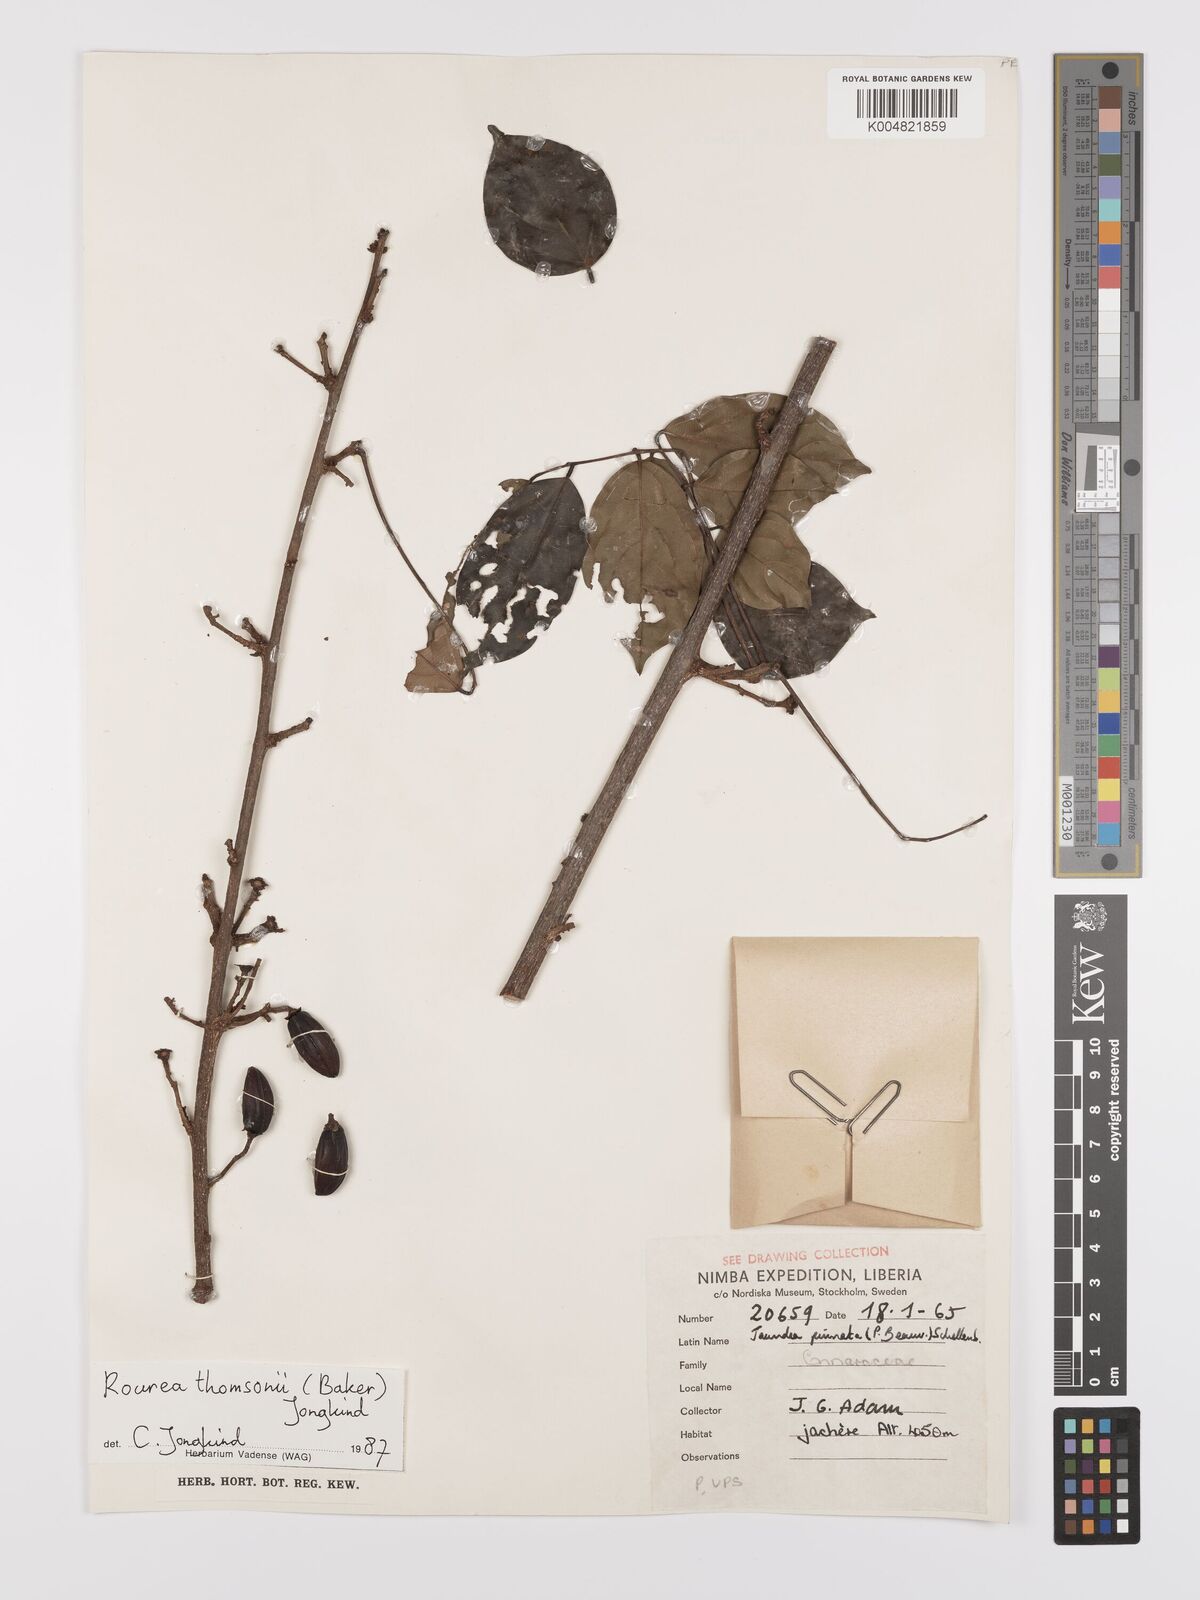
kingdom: Plantae
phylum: Tracheophyta
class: Magnoliopsida
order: Oxalidales
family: Connaraceae
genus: Rourea
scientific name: Rourea pinnata
